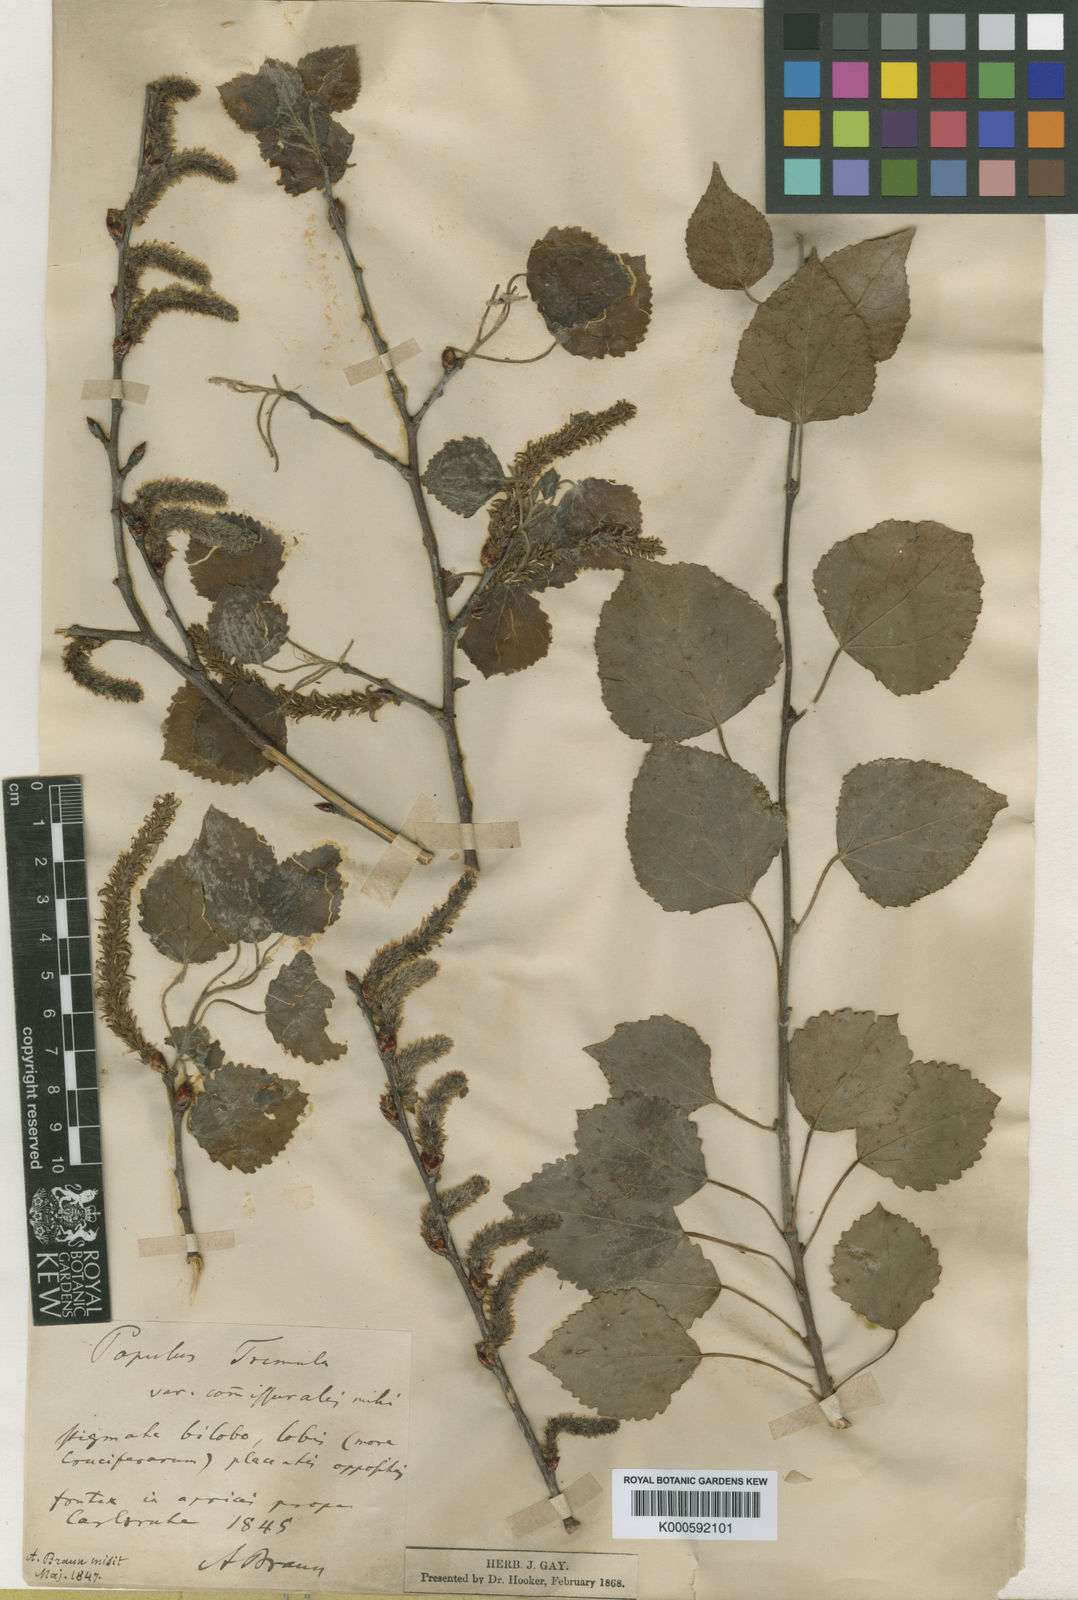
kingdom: Plantae
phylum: Tracheophyta
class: Magnoliopsida
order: Malpighiales
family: Salicaceae
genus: Populus
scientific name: Populus tremula
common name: European aspen
